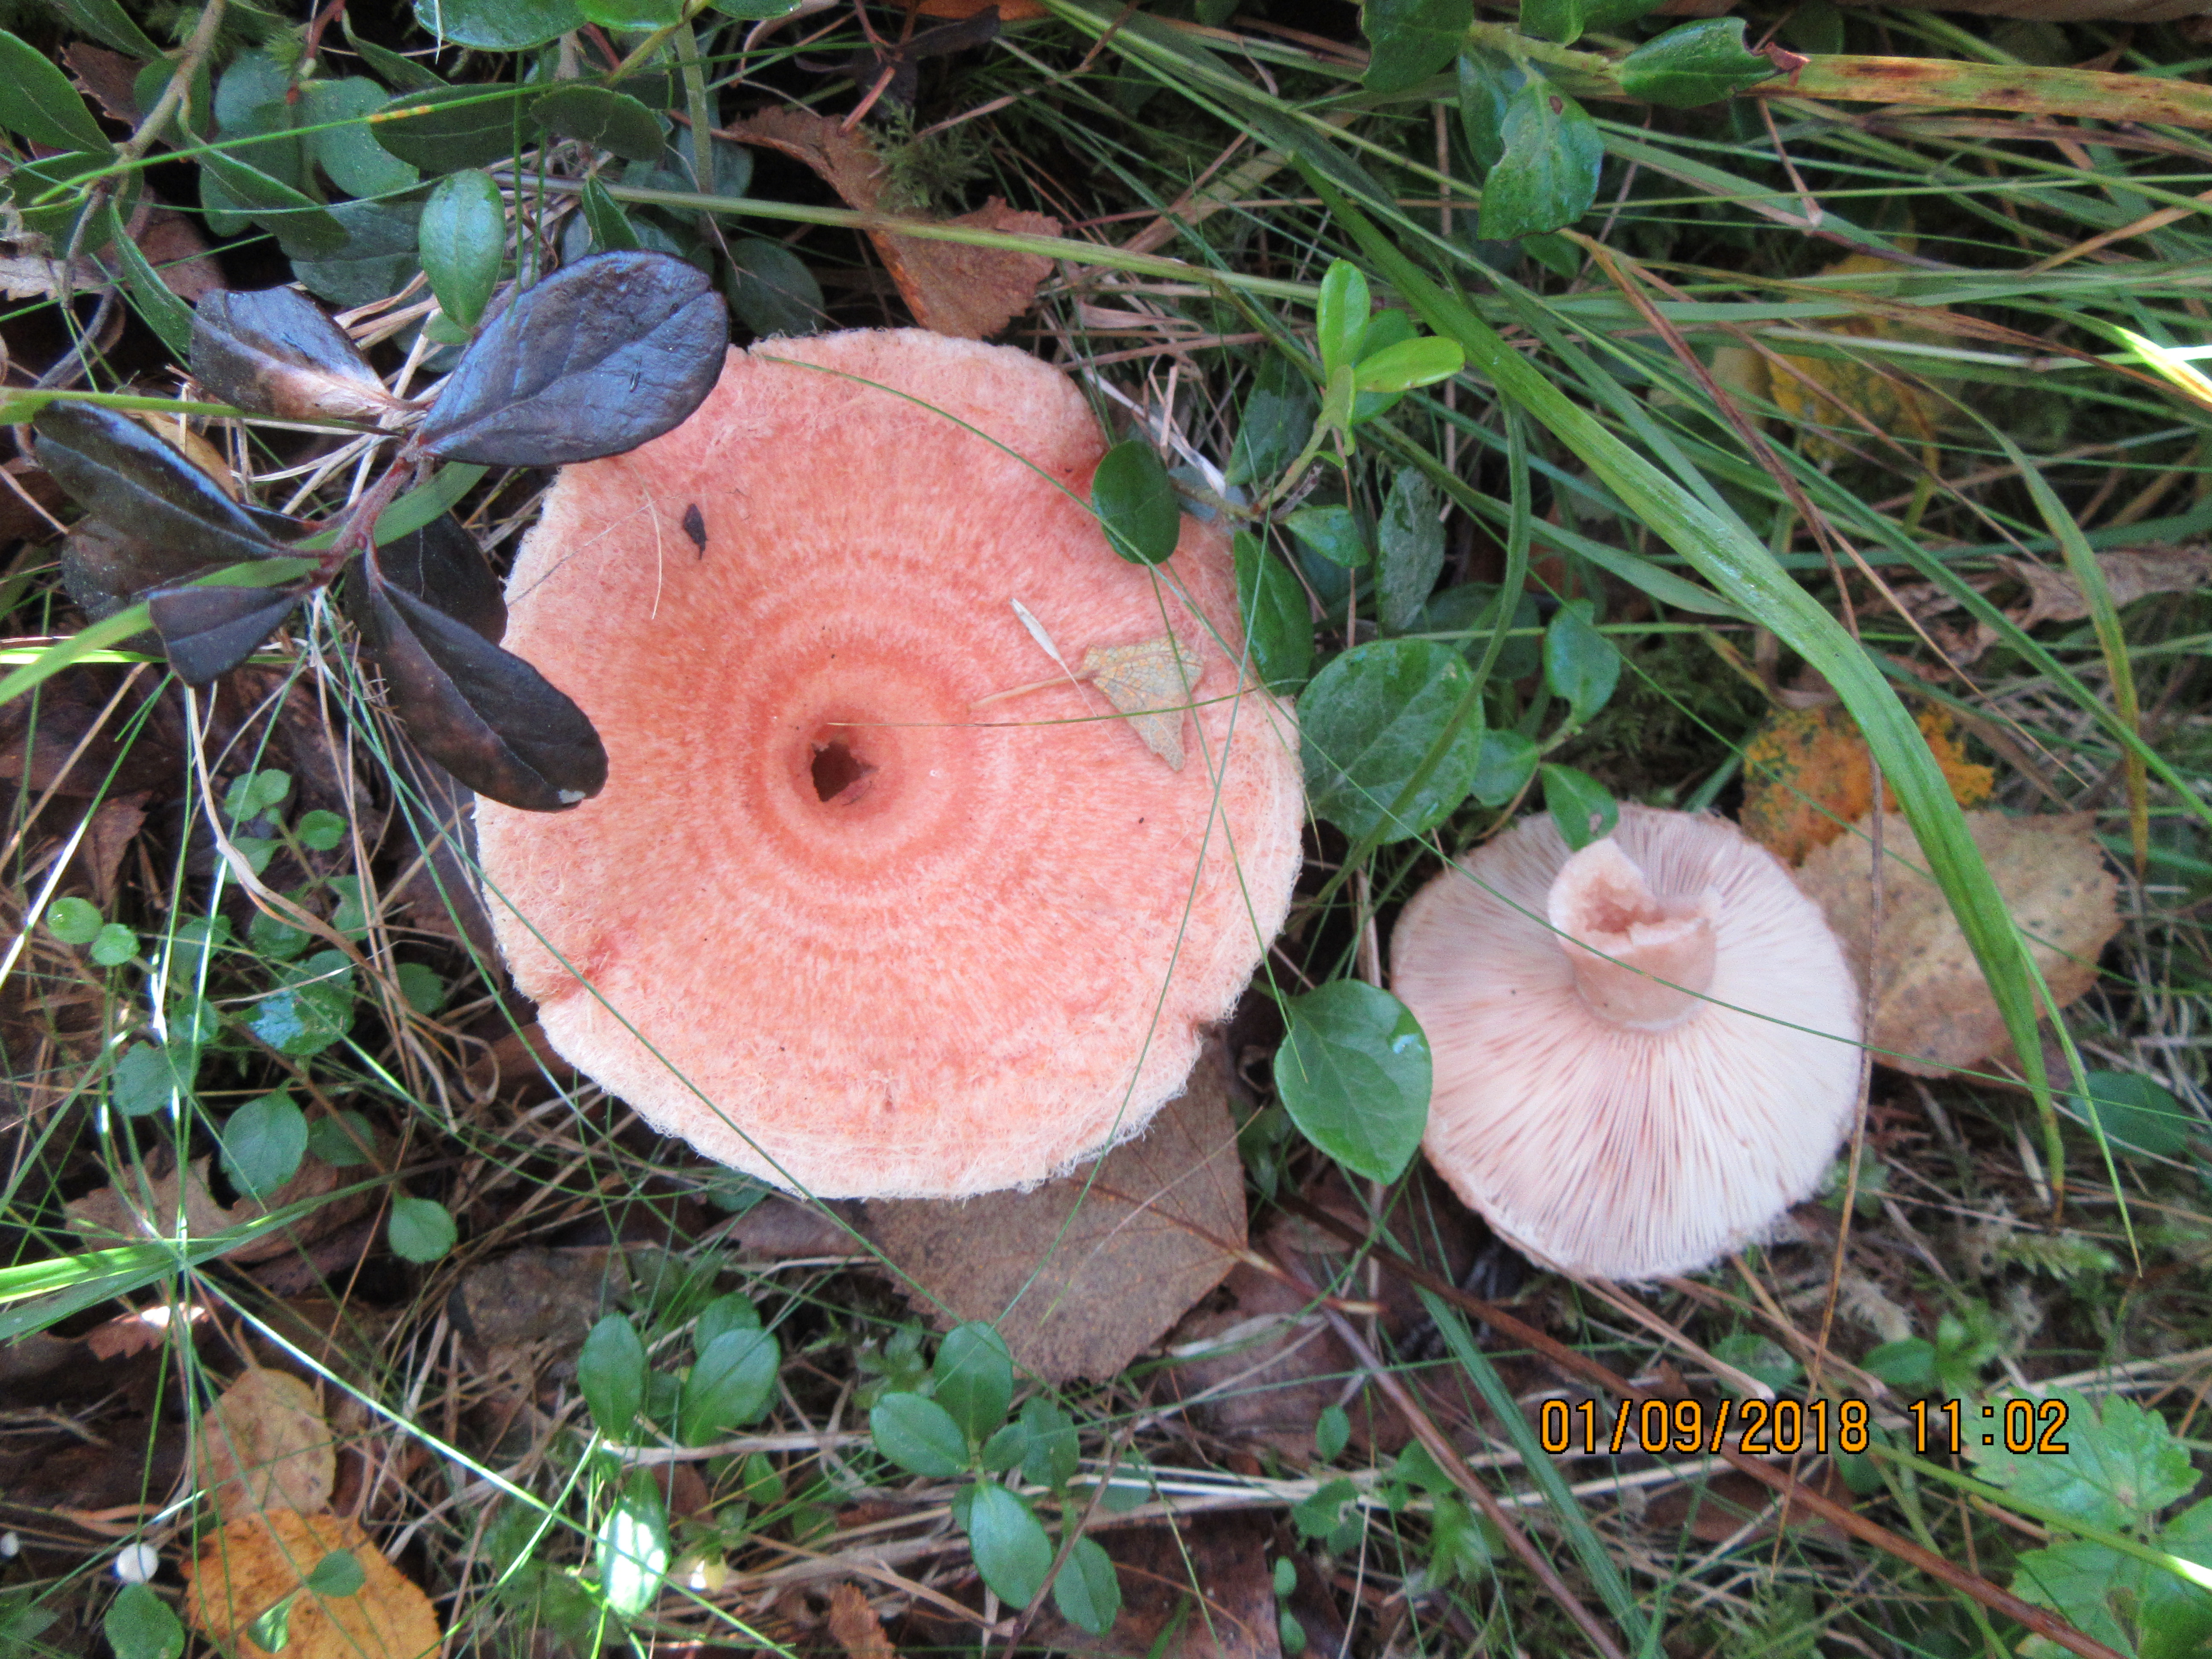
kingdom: Fungi
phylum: Basidiomycota
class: Agaricomycetes
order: Russulales
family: Russulaceae
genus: Lactarius
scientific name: Lactarius torminosus
